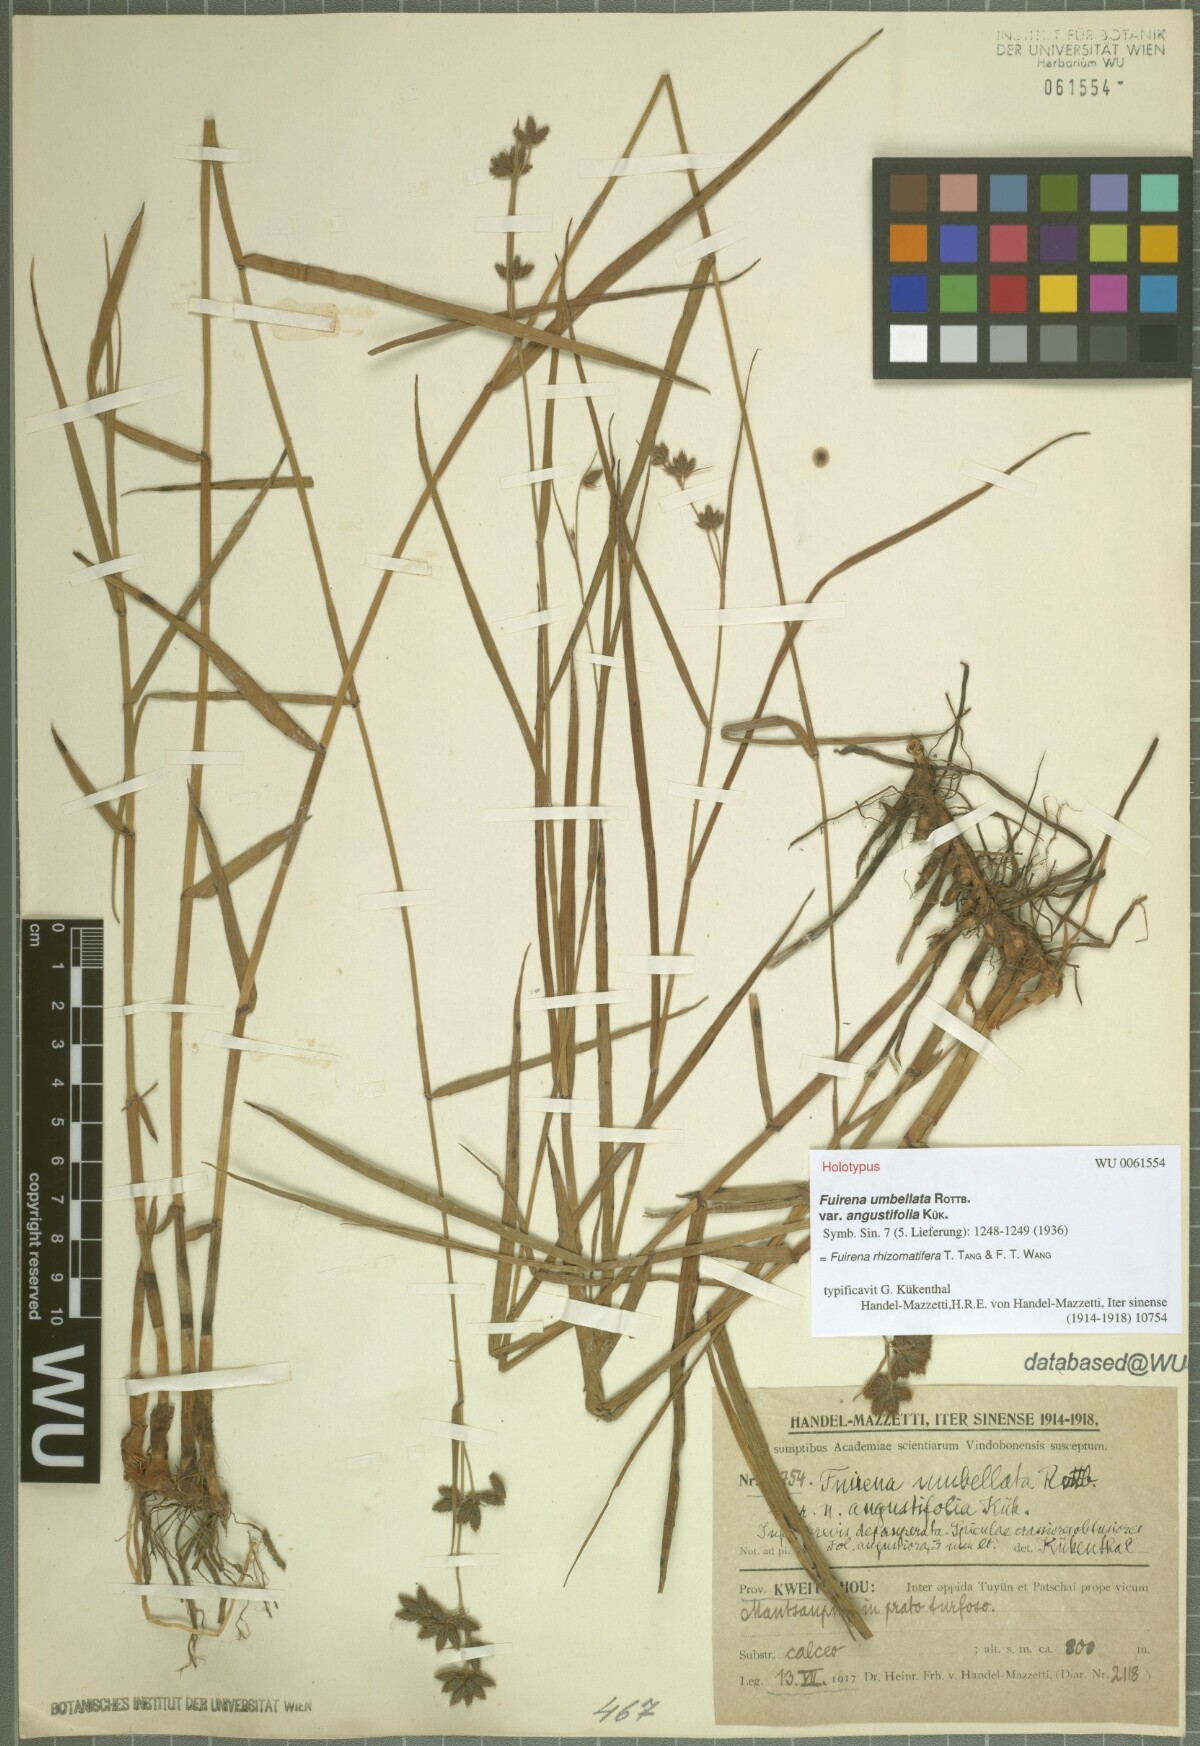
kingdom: Plantae
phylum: Tracheophyta
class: Liliopsida
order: Poales
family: Cyperaceae
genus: Fuirena
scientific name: Fuirena rhizomatifera
